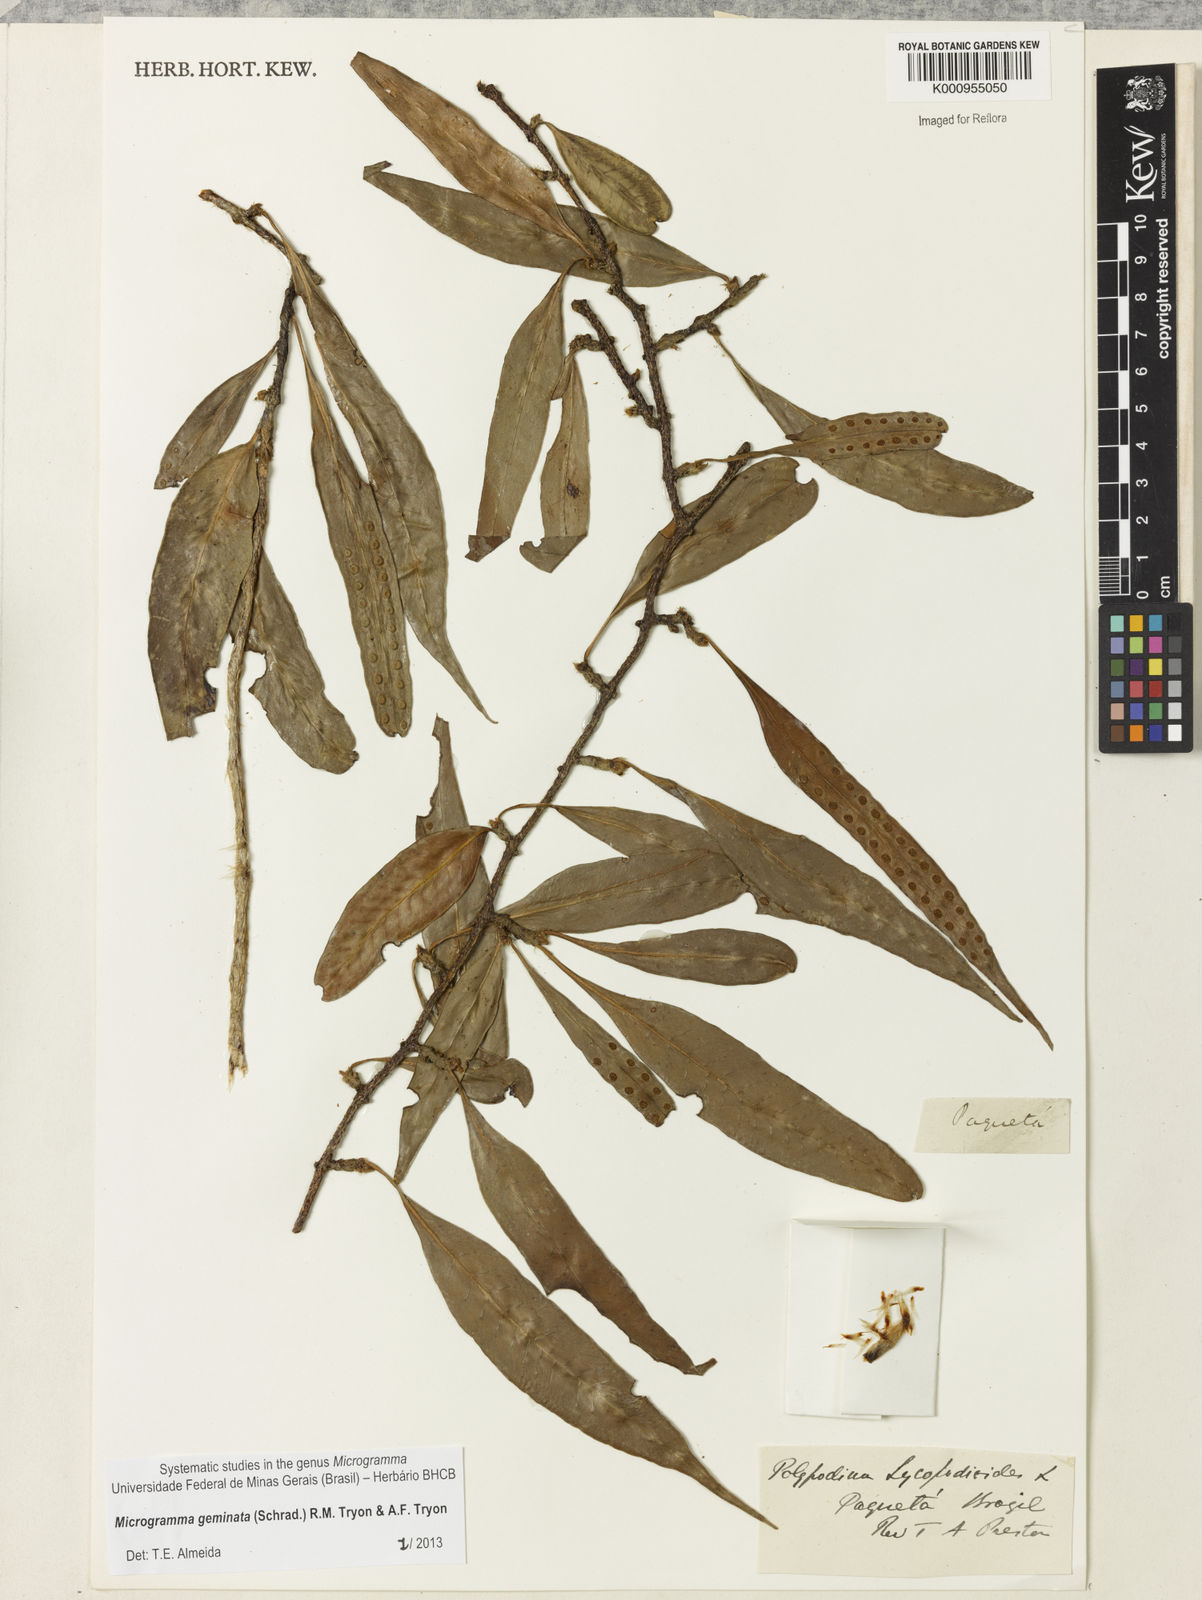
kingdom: Plantae
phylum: Tracheophyta
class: Polypodiopsida
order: Polypodiales
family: Polypodiaceae
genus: Microgramma
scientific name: Microgramma geminata
